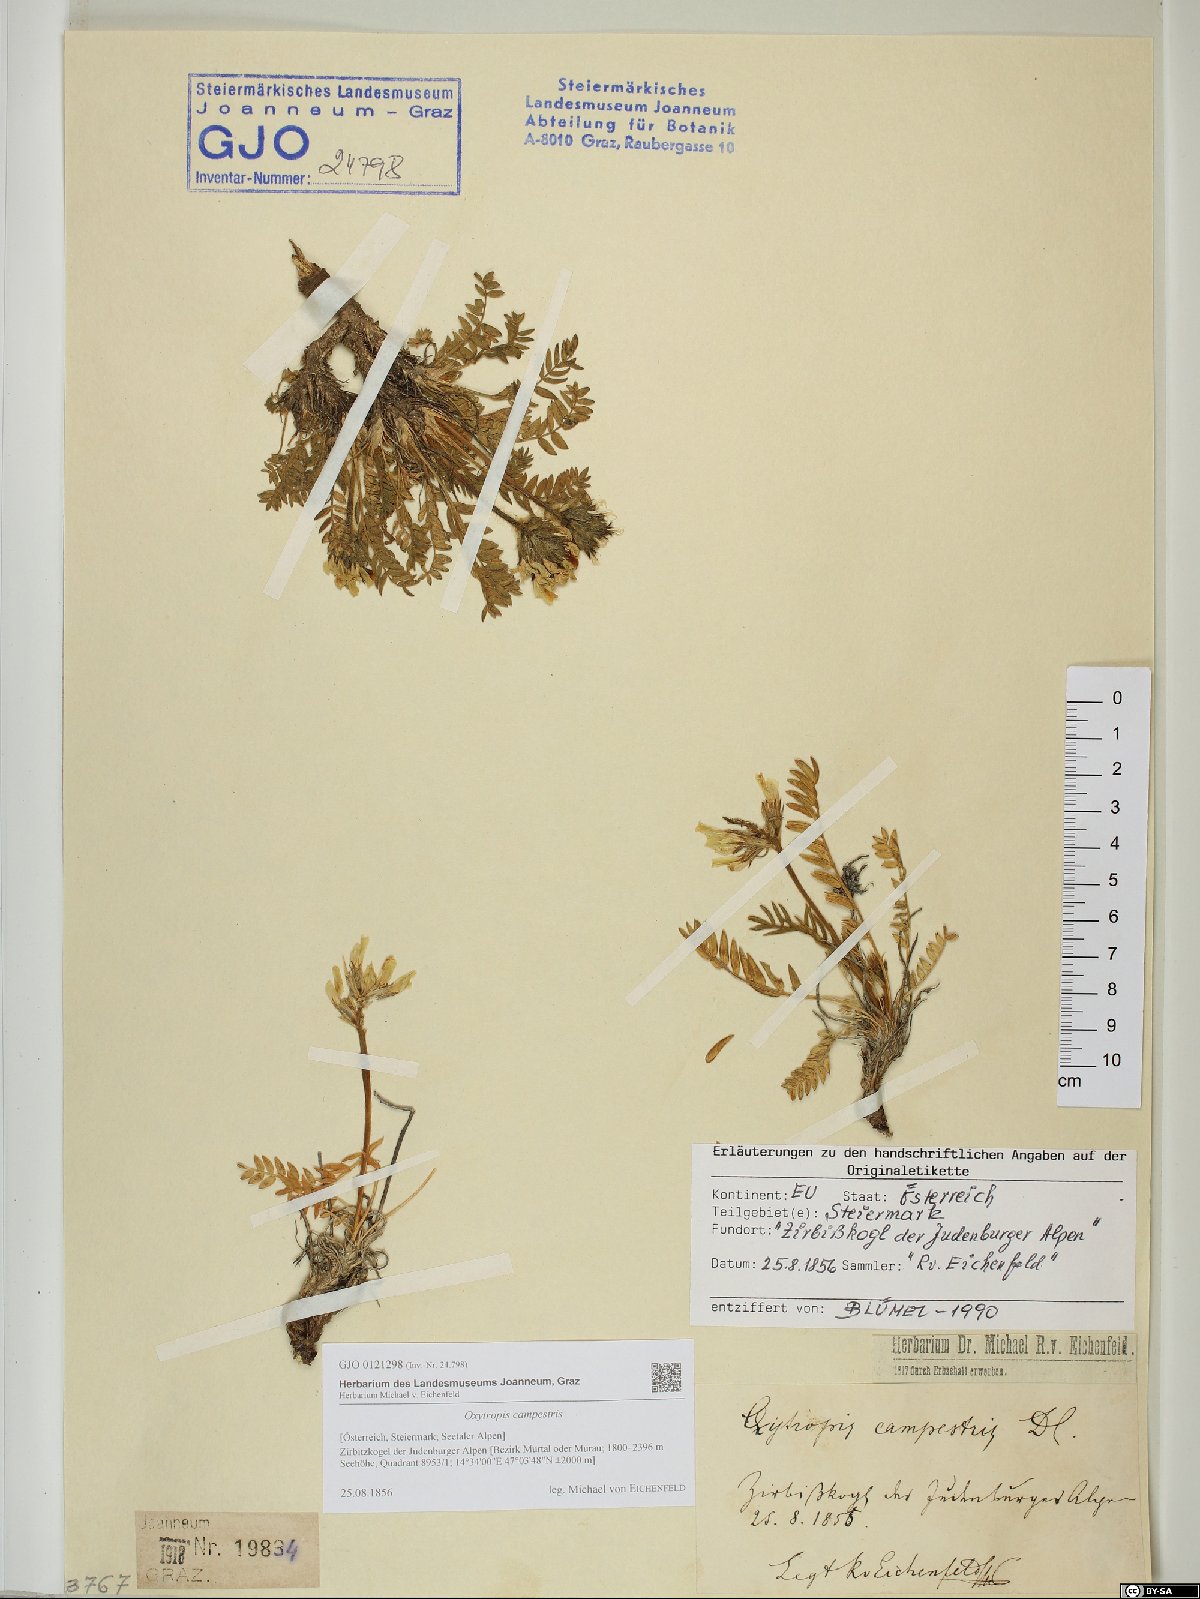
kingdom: Plantae
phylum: Tracheophyta
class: Magnoliopsida
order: Fabales
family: Fabaceae
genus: Oxytropis
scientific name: Oxytropis campestris
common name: Field locoweed
